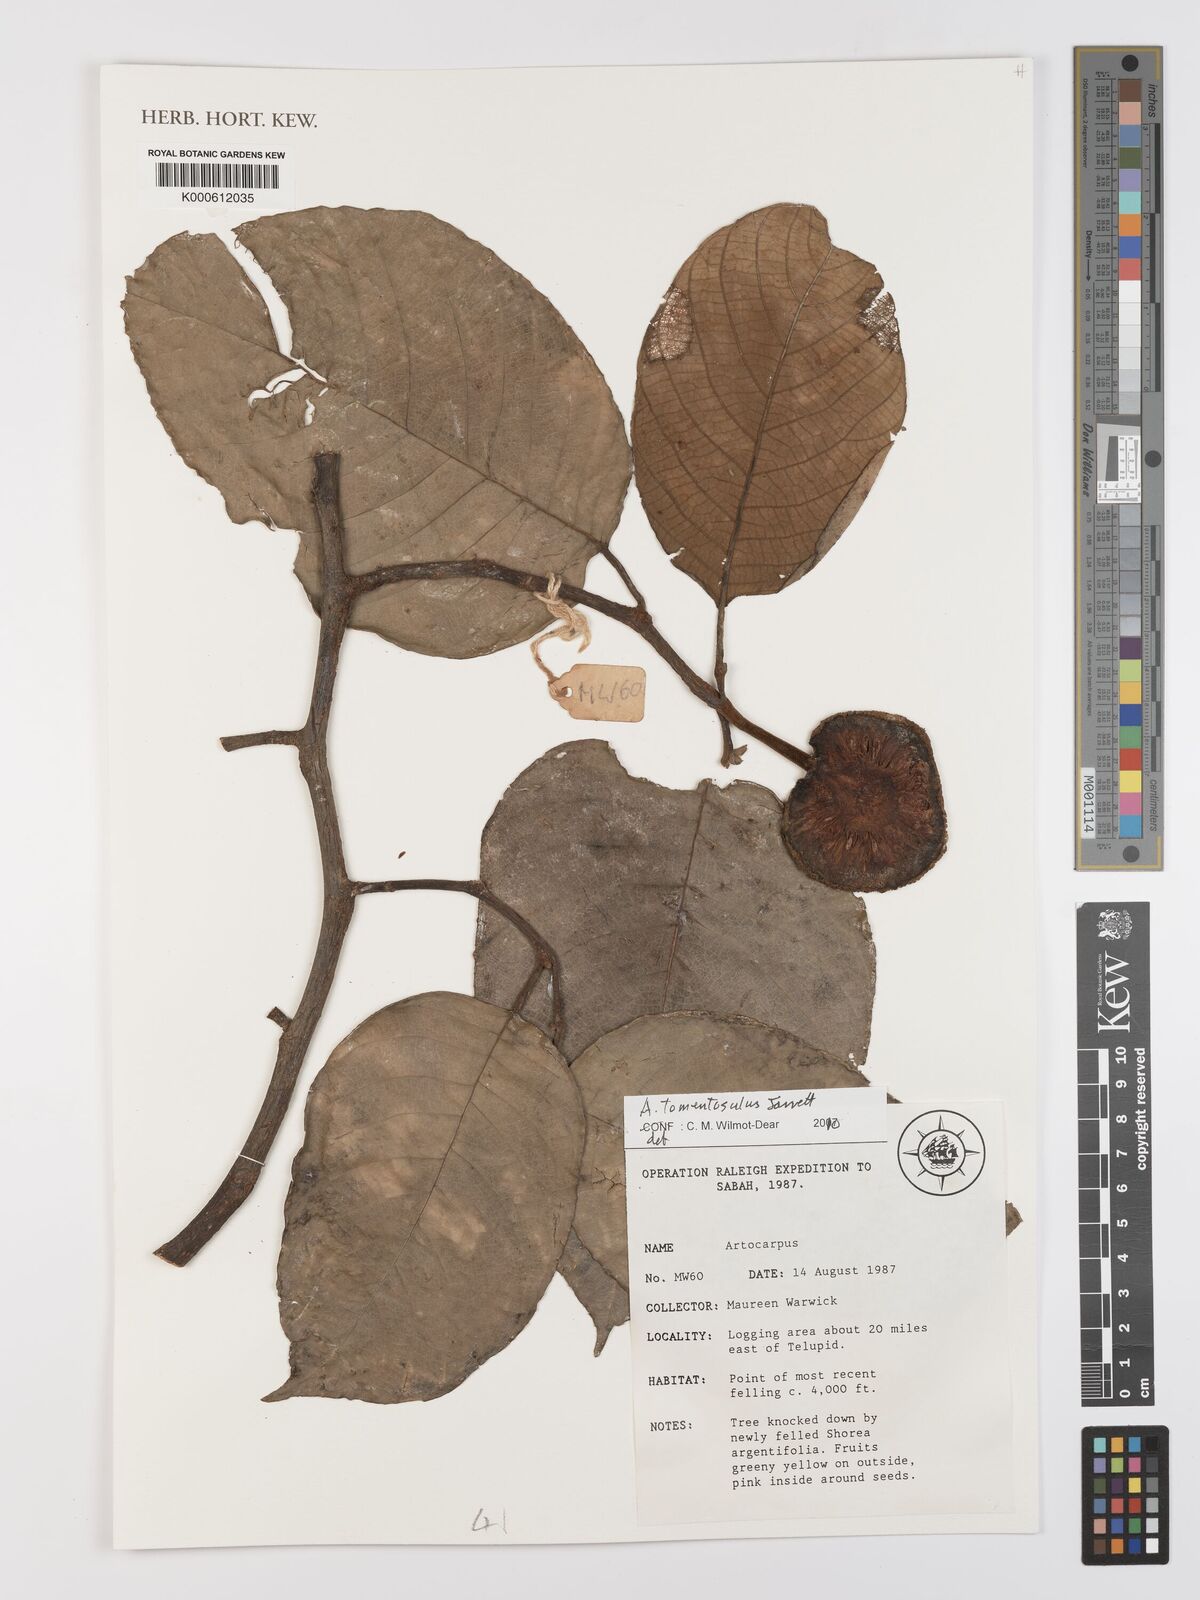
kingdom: Plantae
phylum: Tracheophyta
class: Magnoliopsida
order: Rosales
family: Moraceae
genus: Artocarpus
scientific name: Artocarpus tomentosulus
